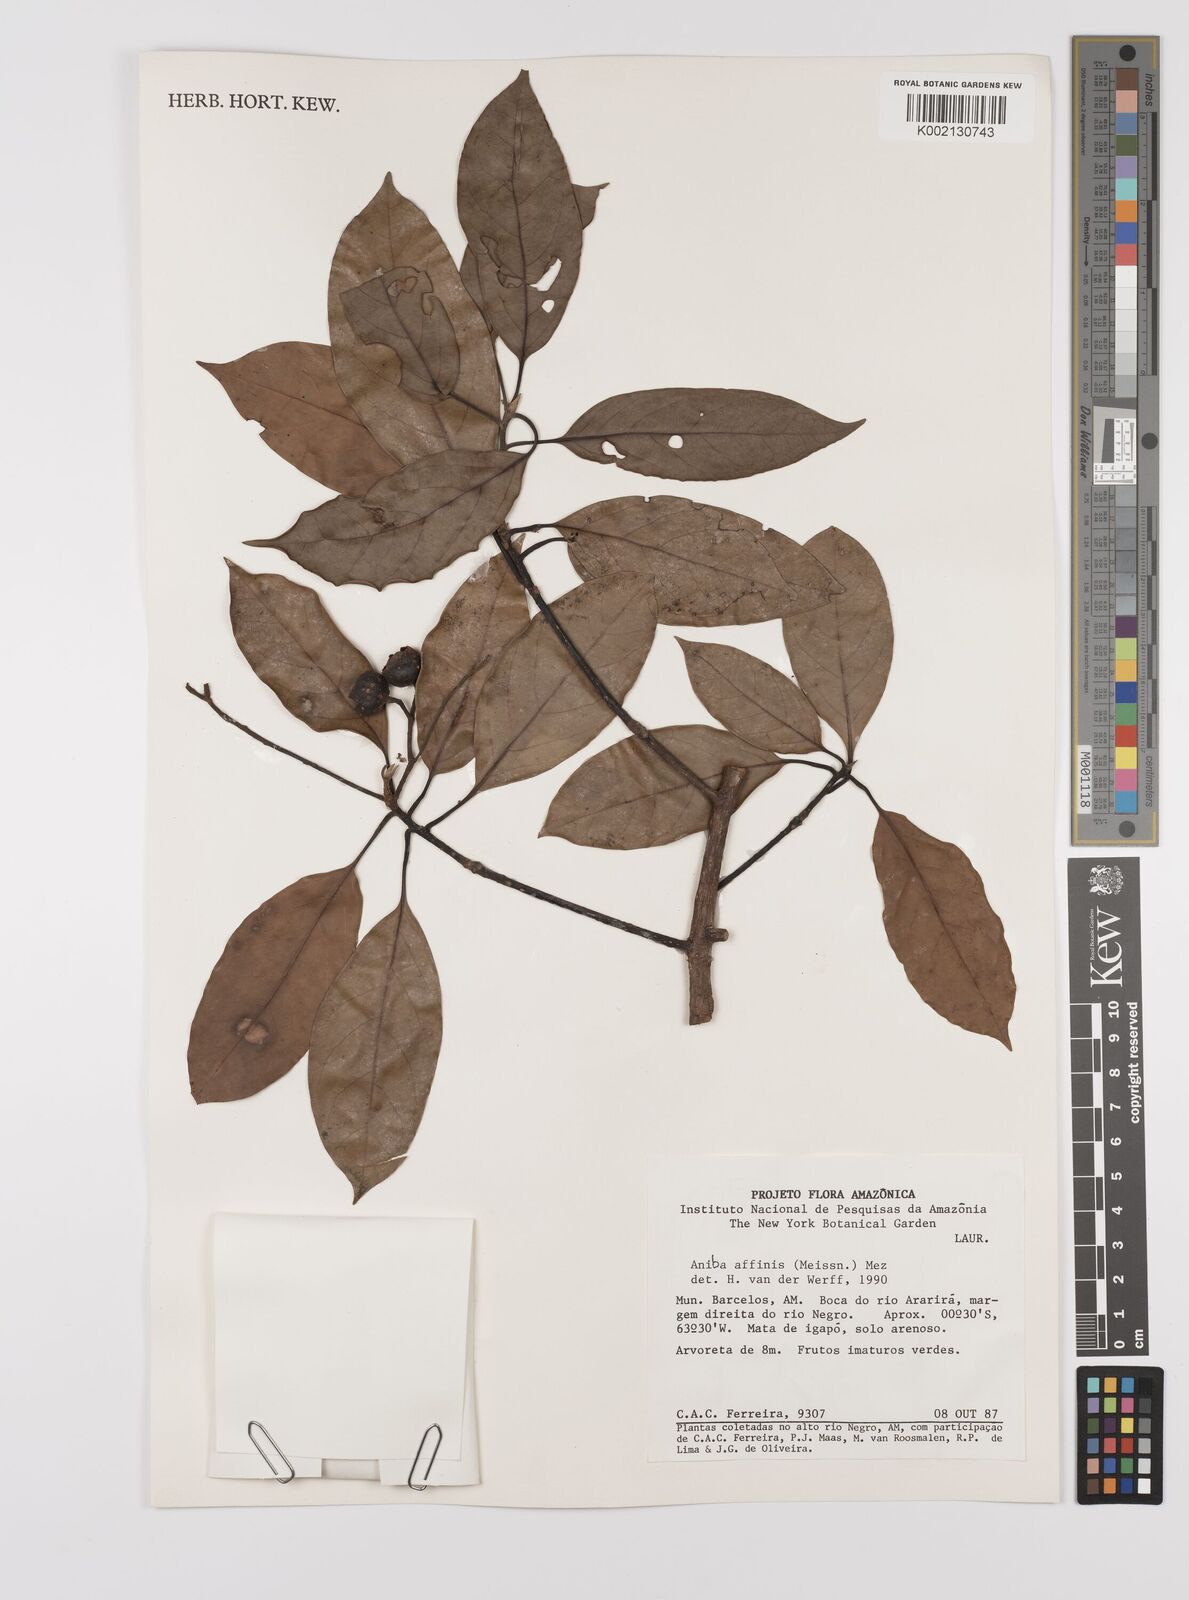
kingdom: Plantae
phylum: Tracheophyta
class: Magnoliopsida
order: Laurales
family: Lauraceae
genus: Aniba
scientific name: Aniba affinis
